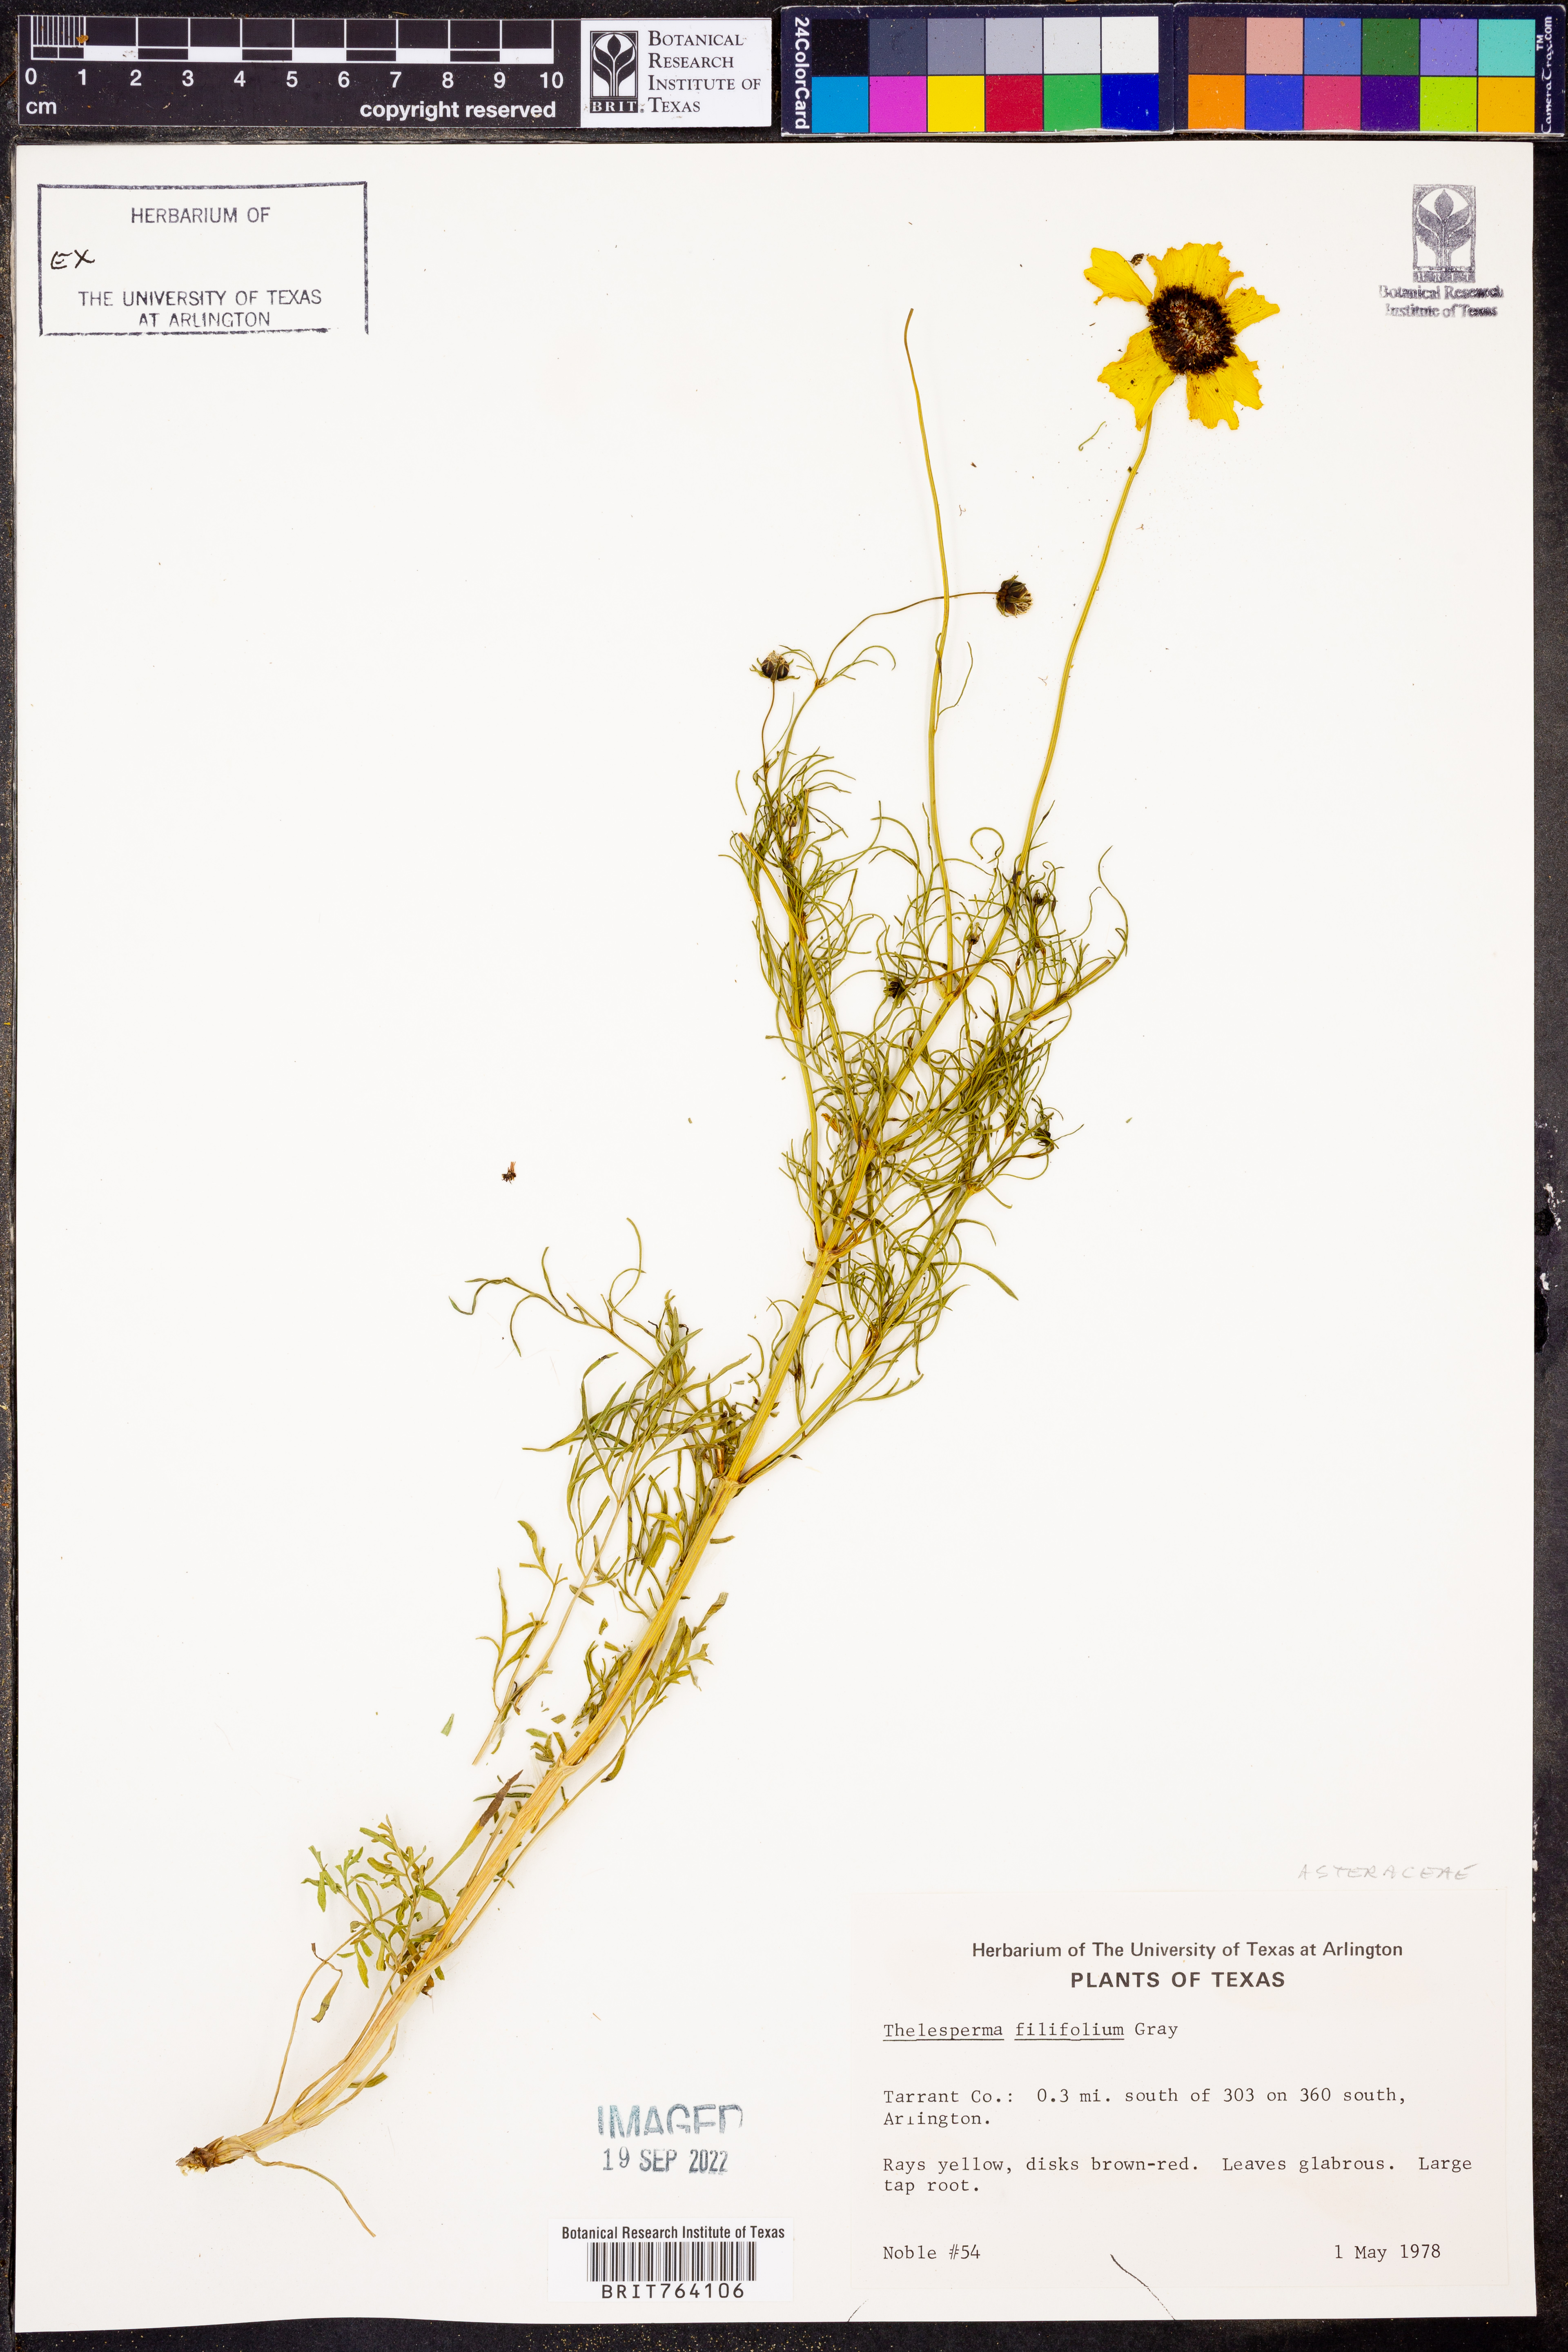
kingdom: Plantae
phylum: Tracheophyta
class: Magnoliopsida
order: Asterales
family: Asteraceae
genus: Thelesperma
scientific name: Thelesperma filifolium
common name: Stiff greenthread
